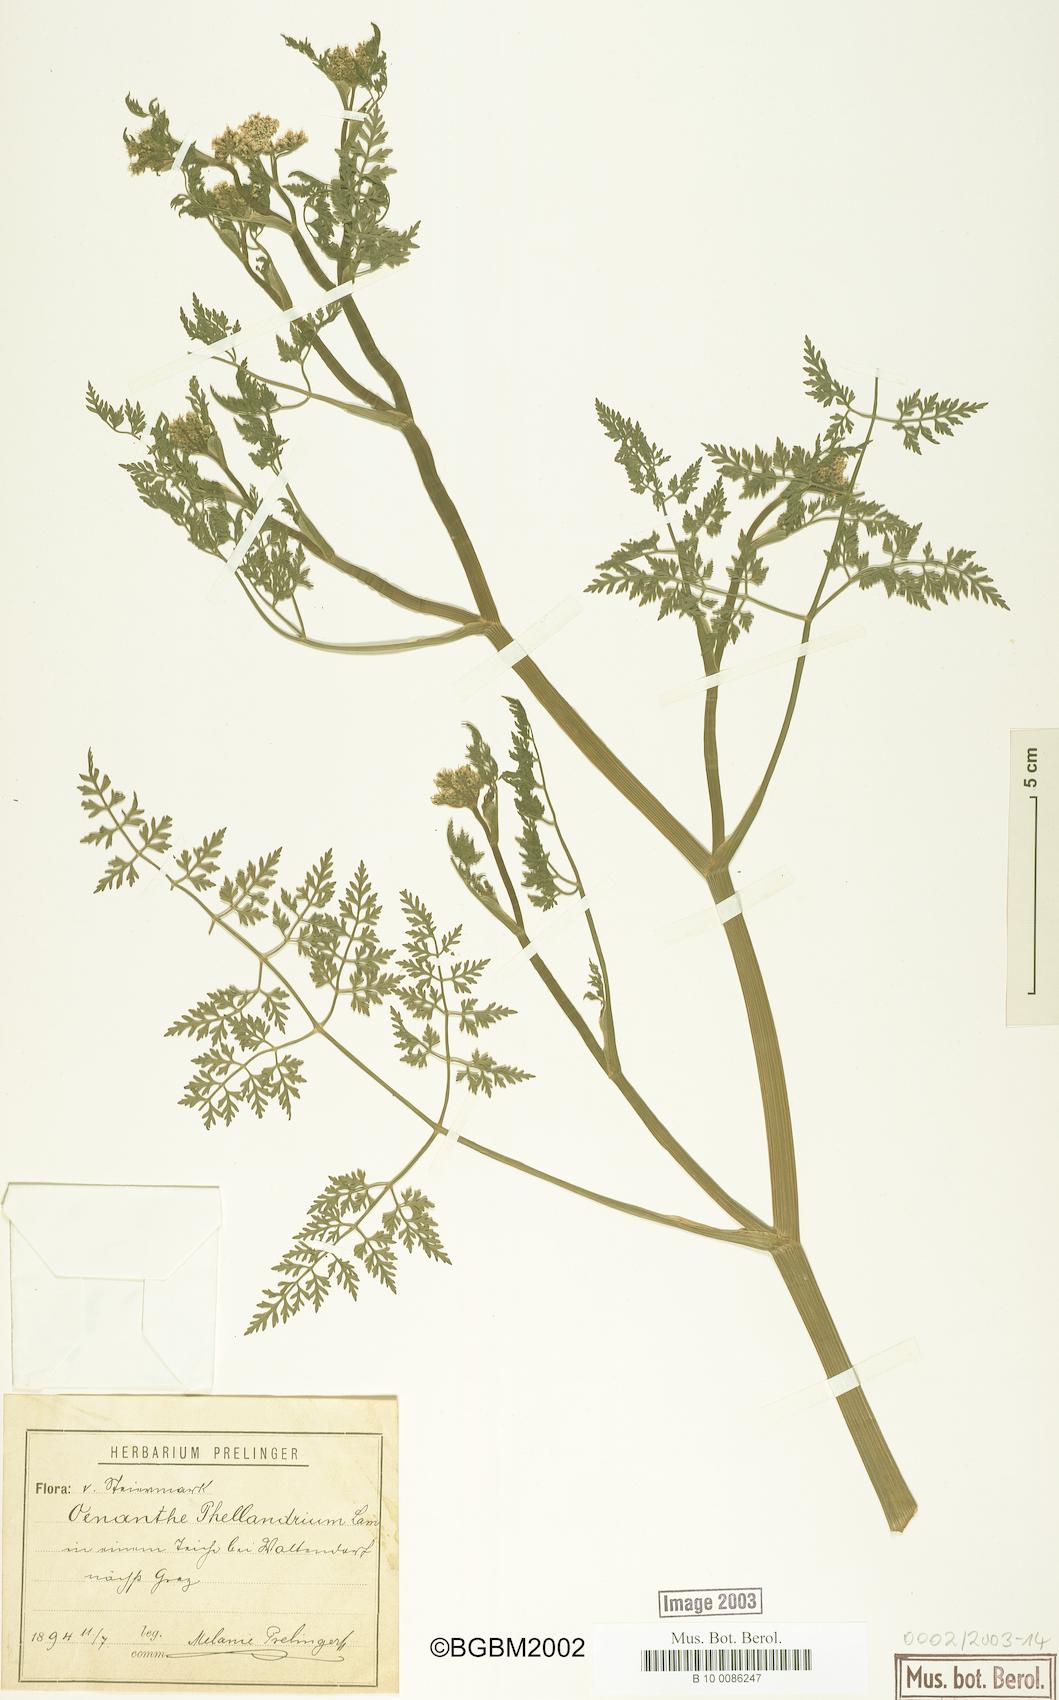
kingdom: Plantae
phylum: Tracheophyta
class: Magnoliopsida
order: Apiales
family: Apiaceae
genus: Oenanthe
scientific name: Oenanthe aquatica
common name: Fine-leaved water-dropwort
